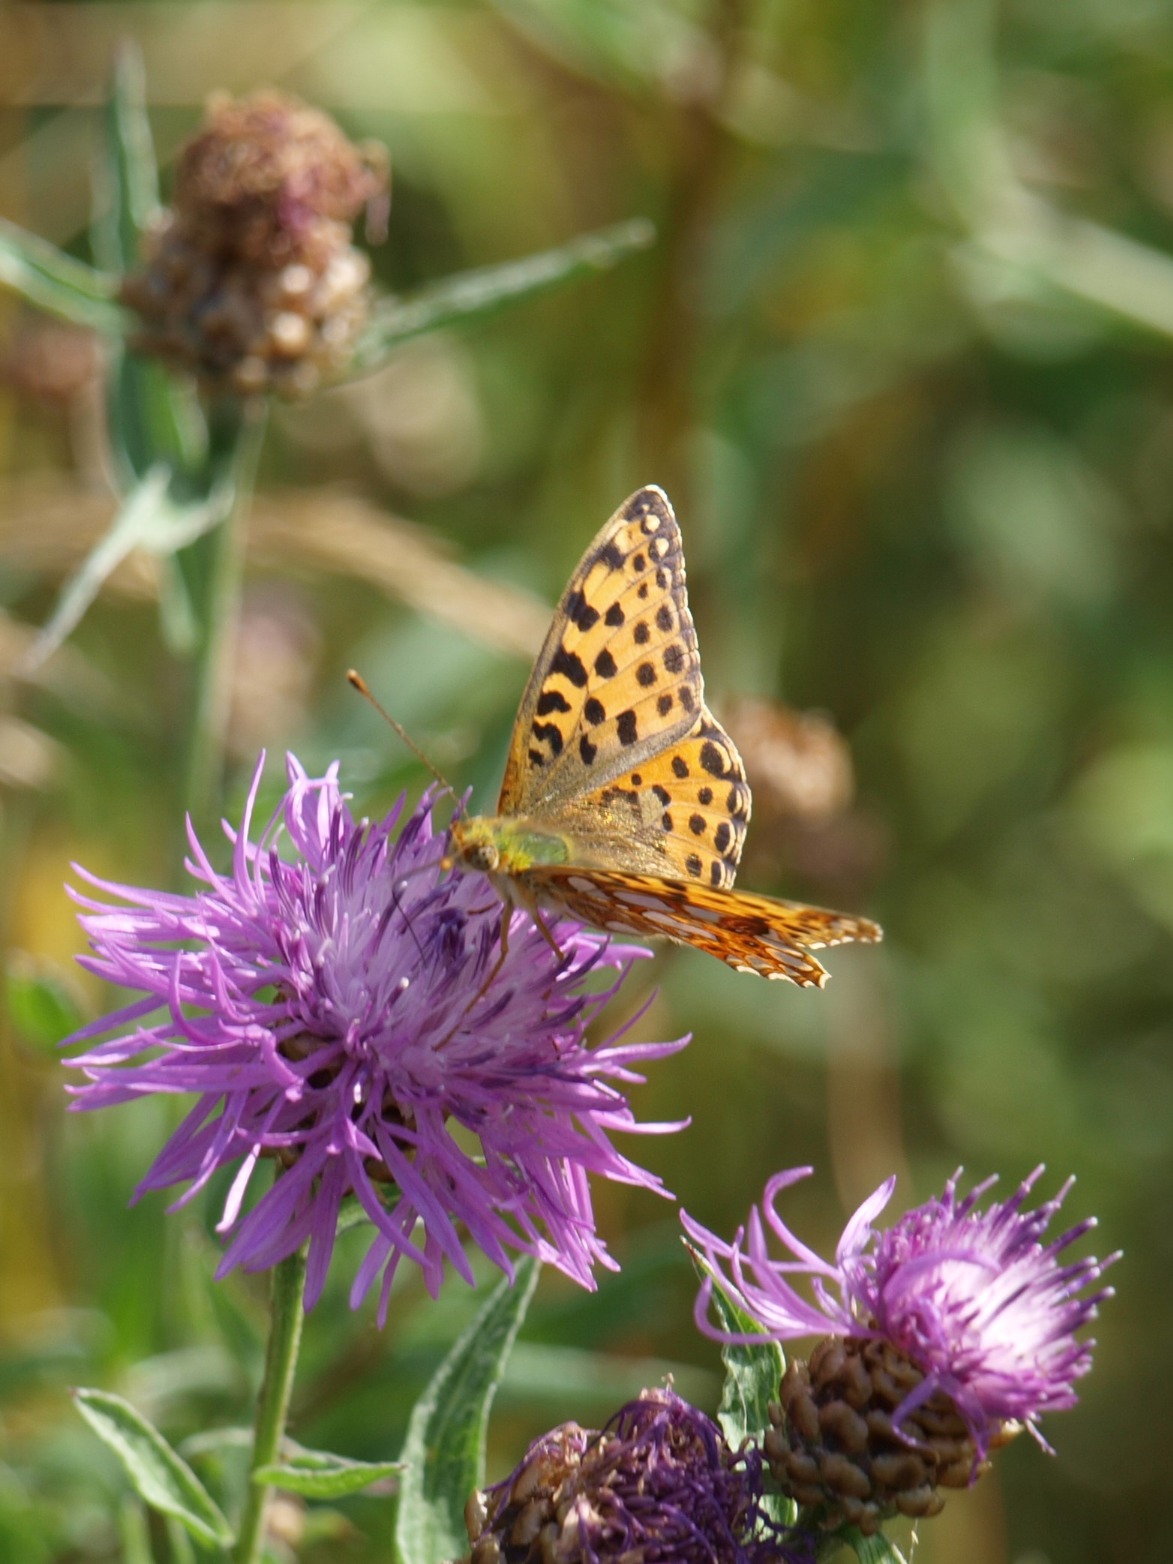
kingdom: Animalia
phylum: Arthropoda
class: Insecta
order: Lepidoptera
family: Nymphalidae
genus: Issoria
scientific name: Issoria lathonia
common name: Storplettet perlemorsommerfugl
